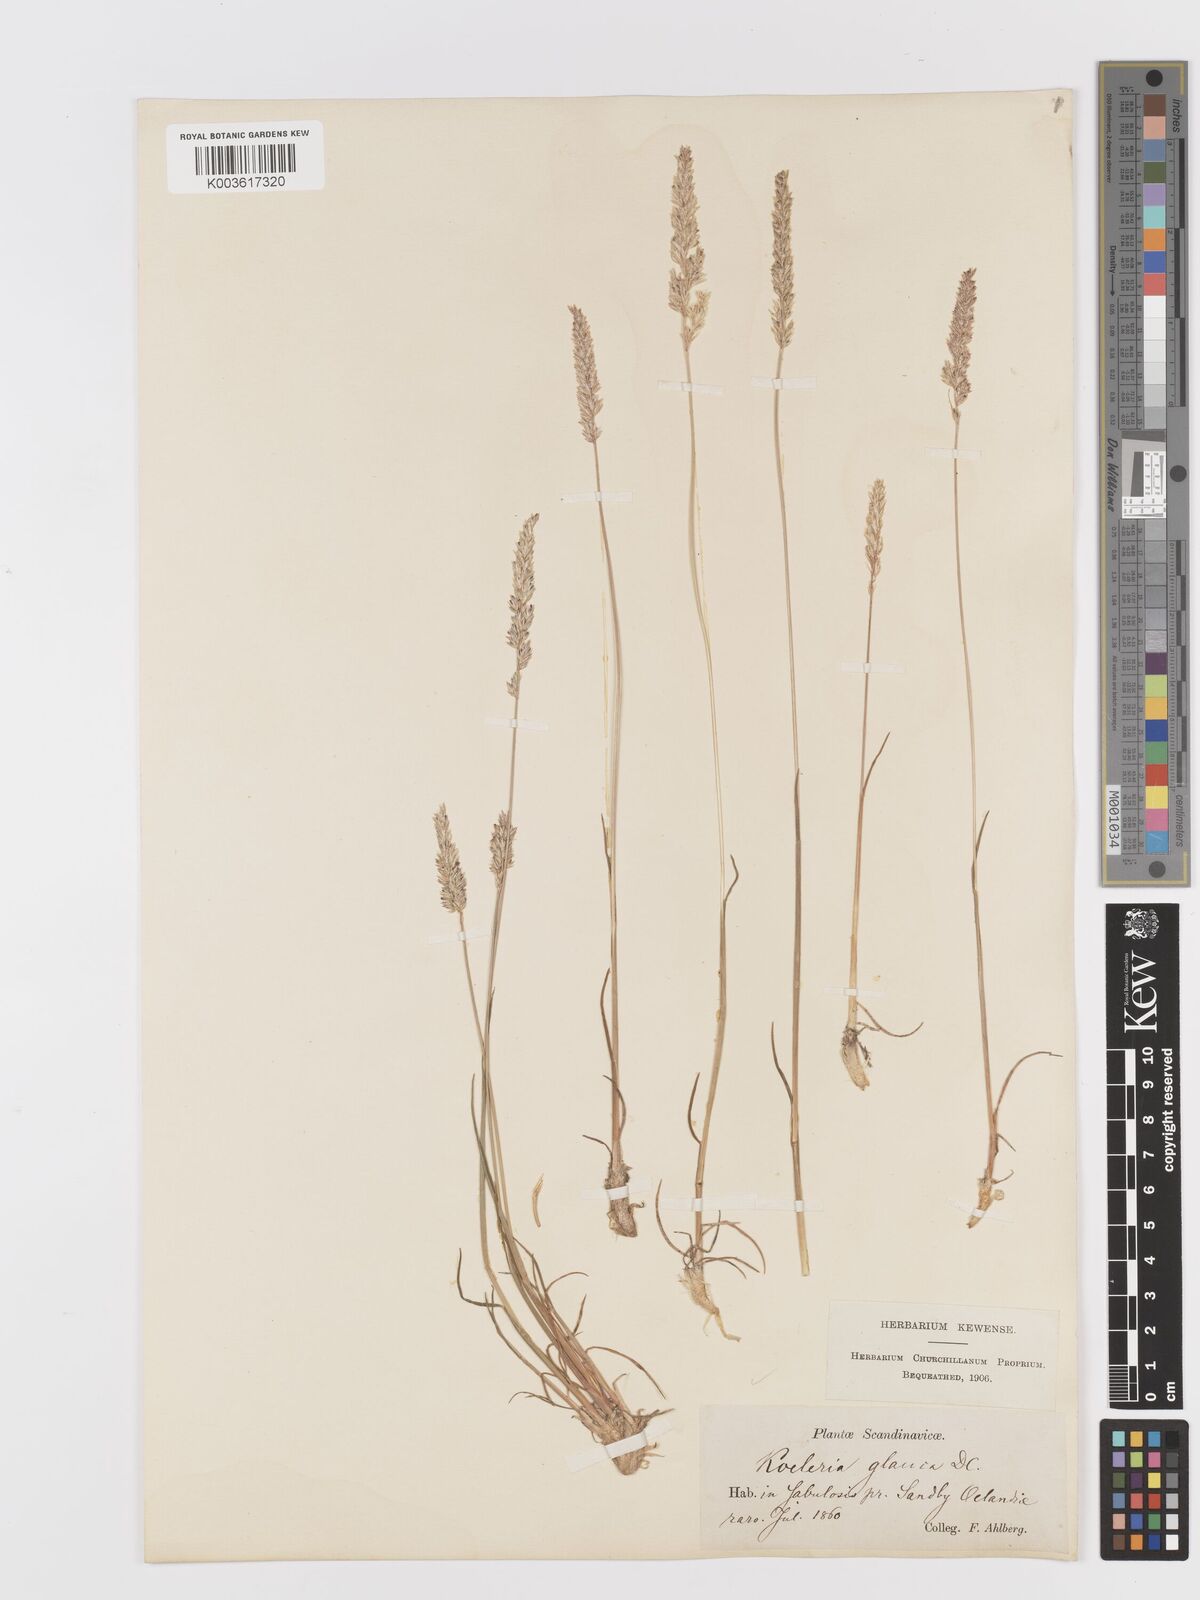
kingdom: Plantae
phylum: Tracheophyta
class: Liliopsida
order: Poales
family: Poaceae
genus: Koeleria
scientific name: Koeleria glauca
